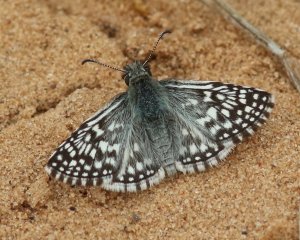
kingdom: Animalia
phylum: Arthropoda
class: Insecta
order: Lepidoptera
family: Hesperiidae
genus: Pyrgus
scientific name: Pyrgus oileus
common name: Desert Checkered-Skipper
